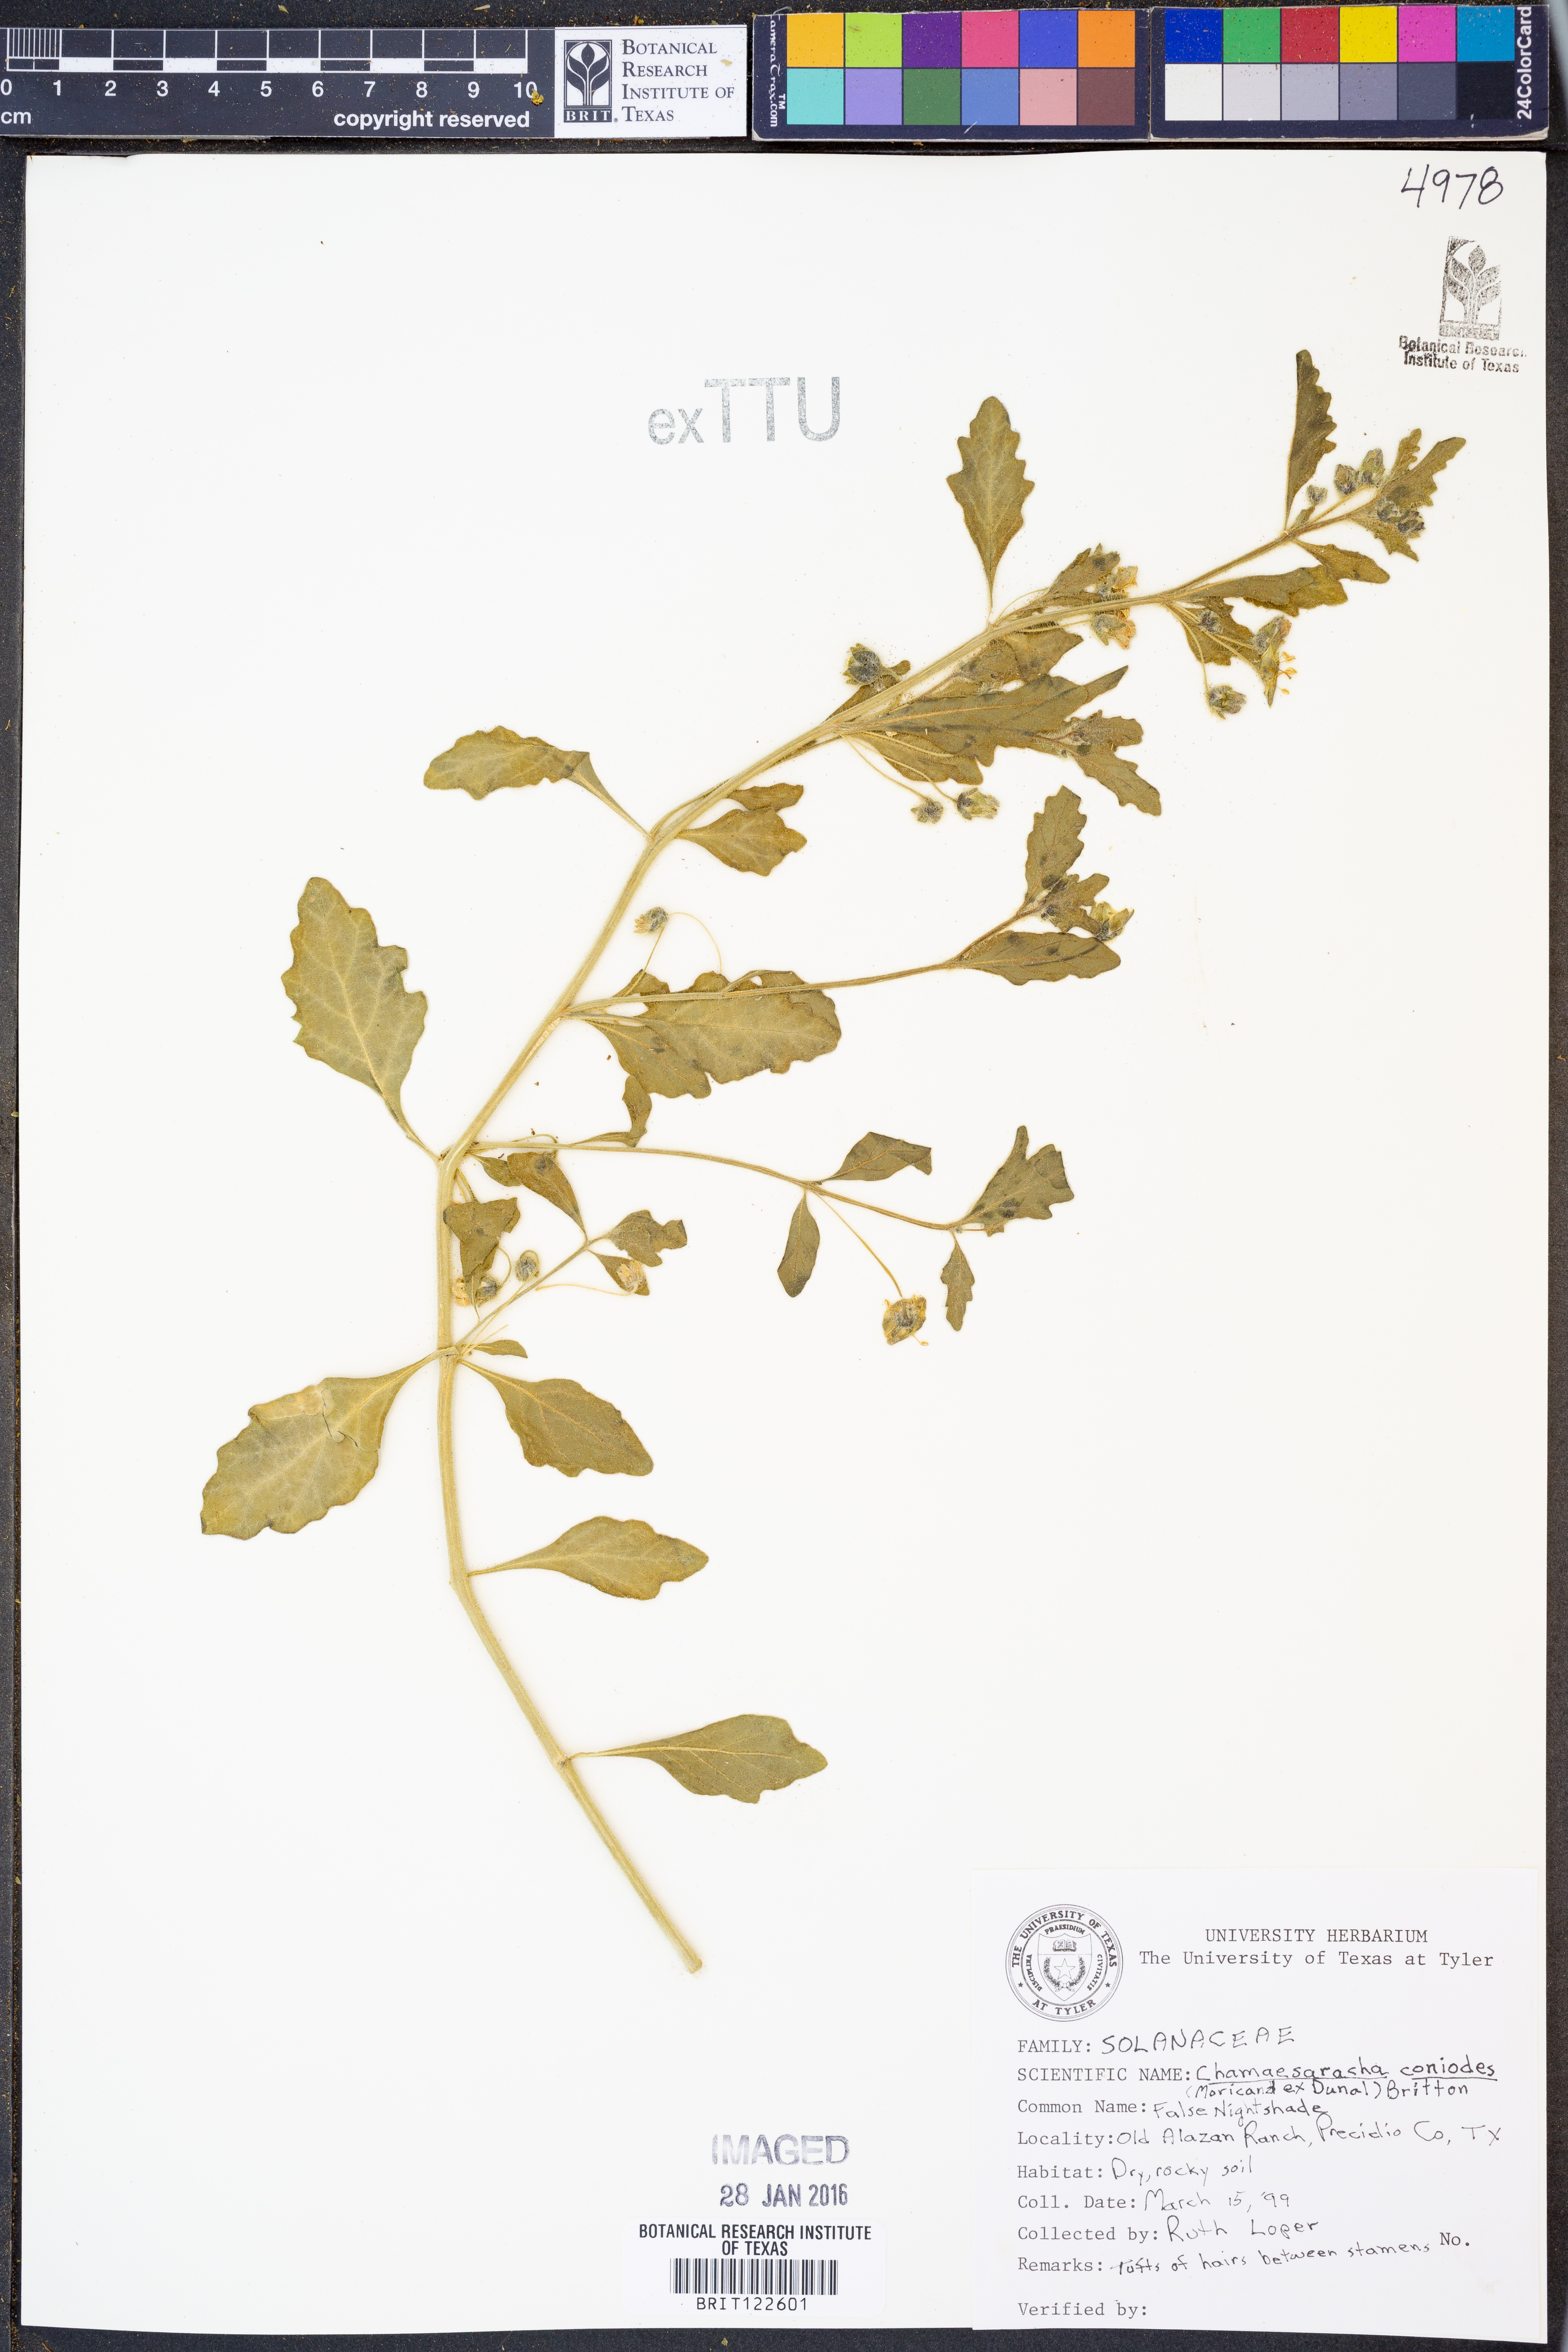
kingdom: Plantae
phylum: Tracheophyta
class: Magnoliopsida
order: Solanales
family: Solanaceae
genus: Chamaesaracha
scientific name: Chamaesaracha coniodes
